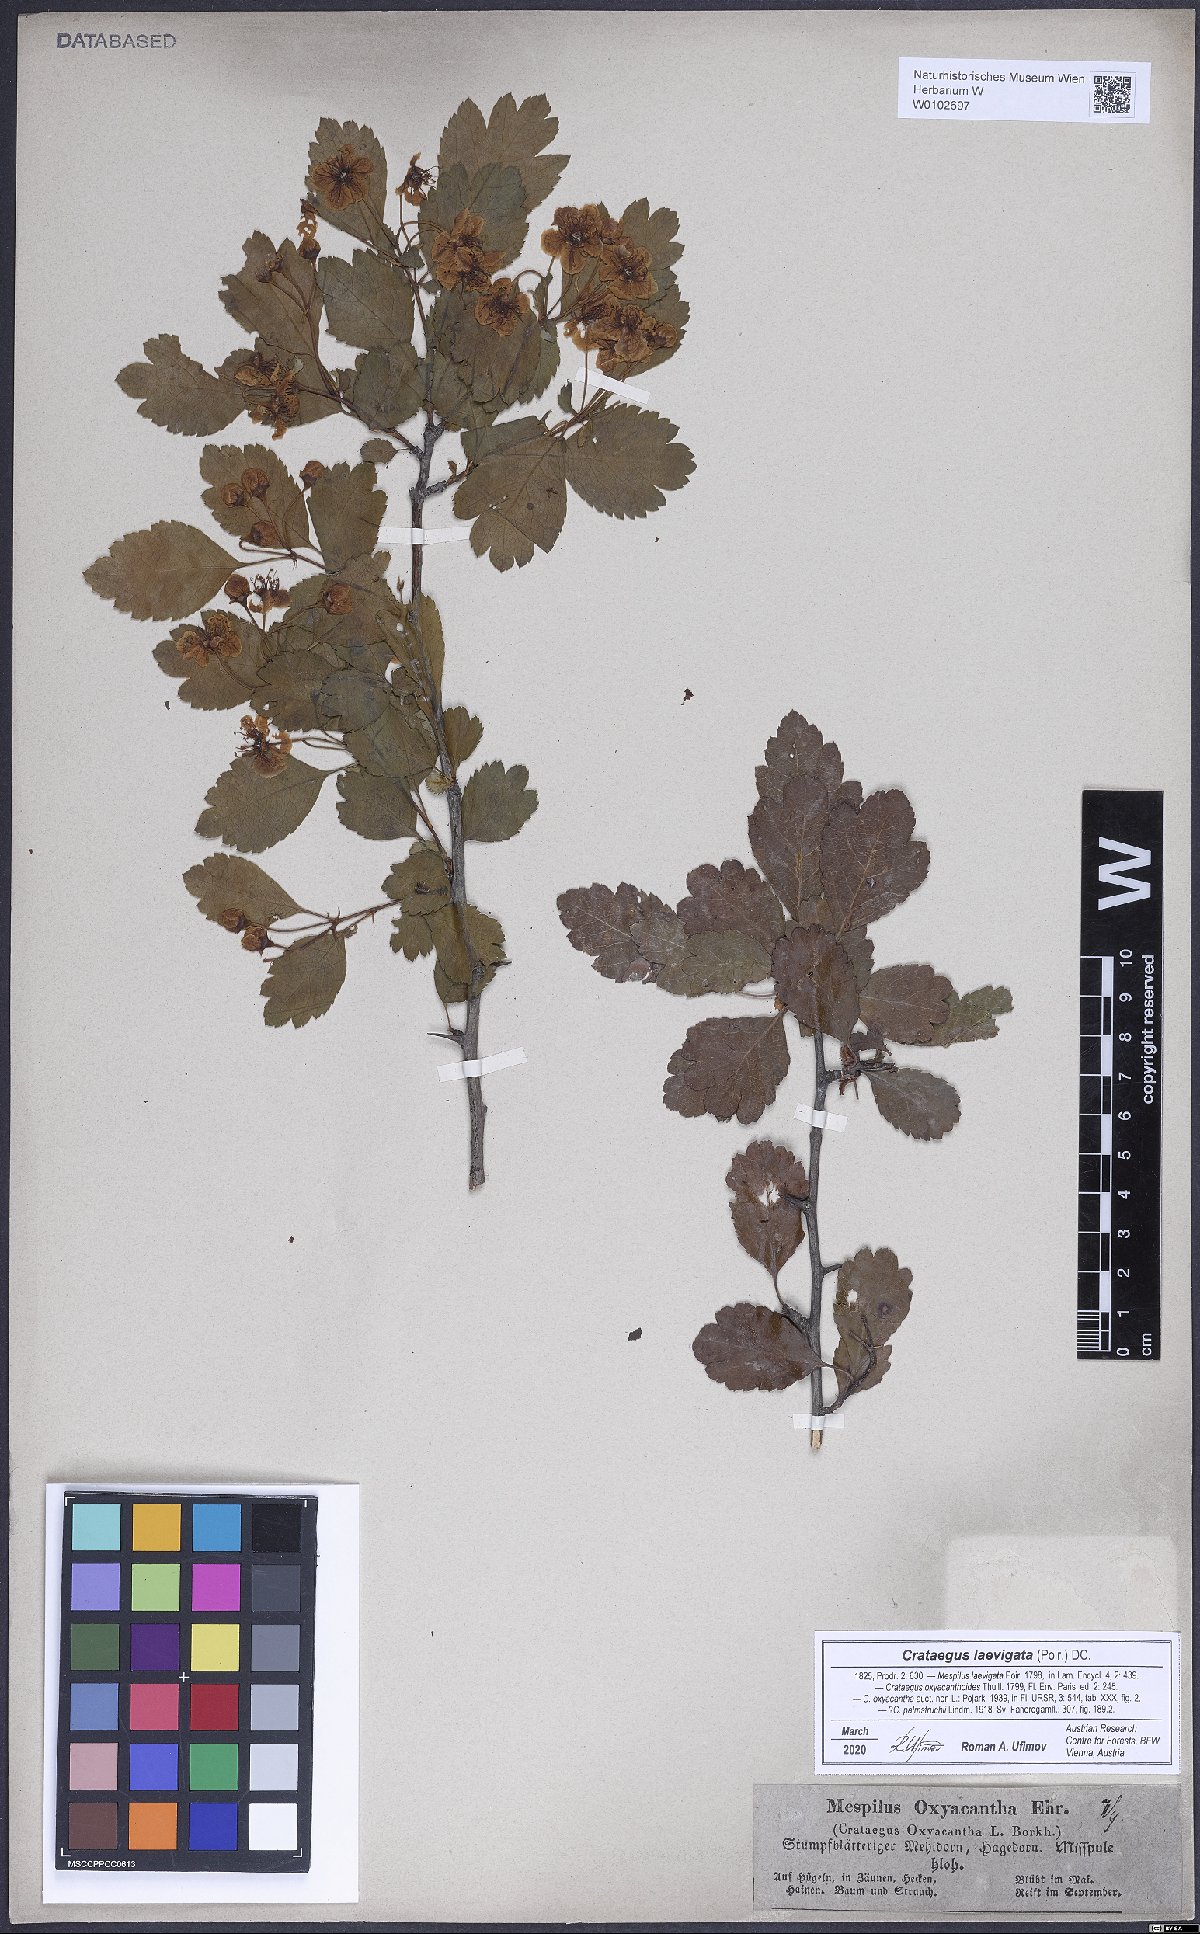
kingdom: Plantae
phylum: Tracheophyta
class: Magnoliopsida
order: Rosales
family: Rosaceae
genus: Crataegus
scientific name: Crataegus laevigata
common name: Midland hawthorn
